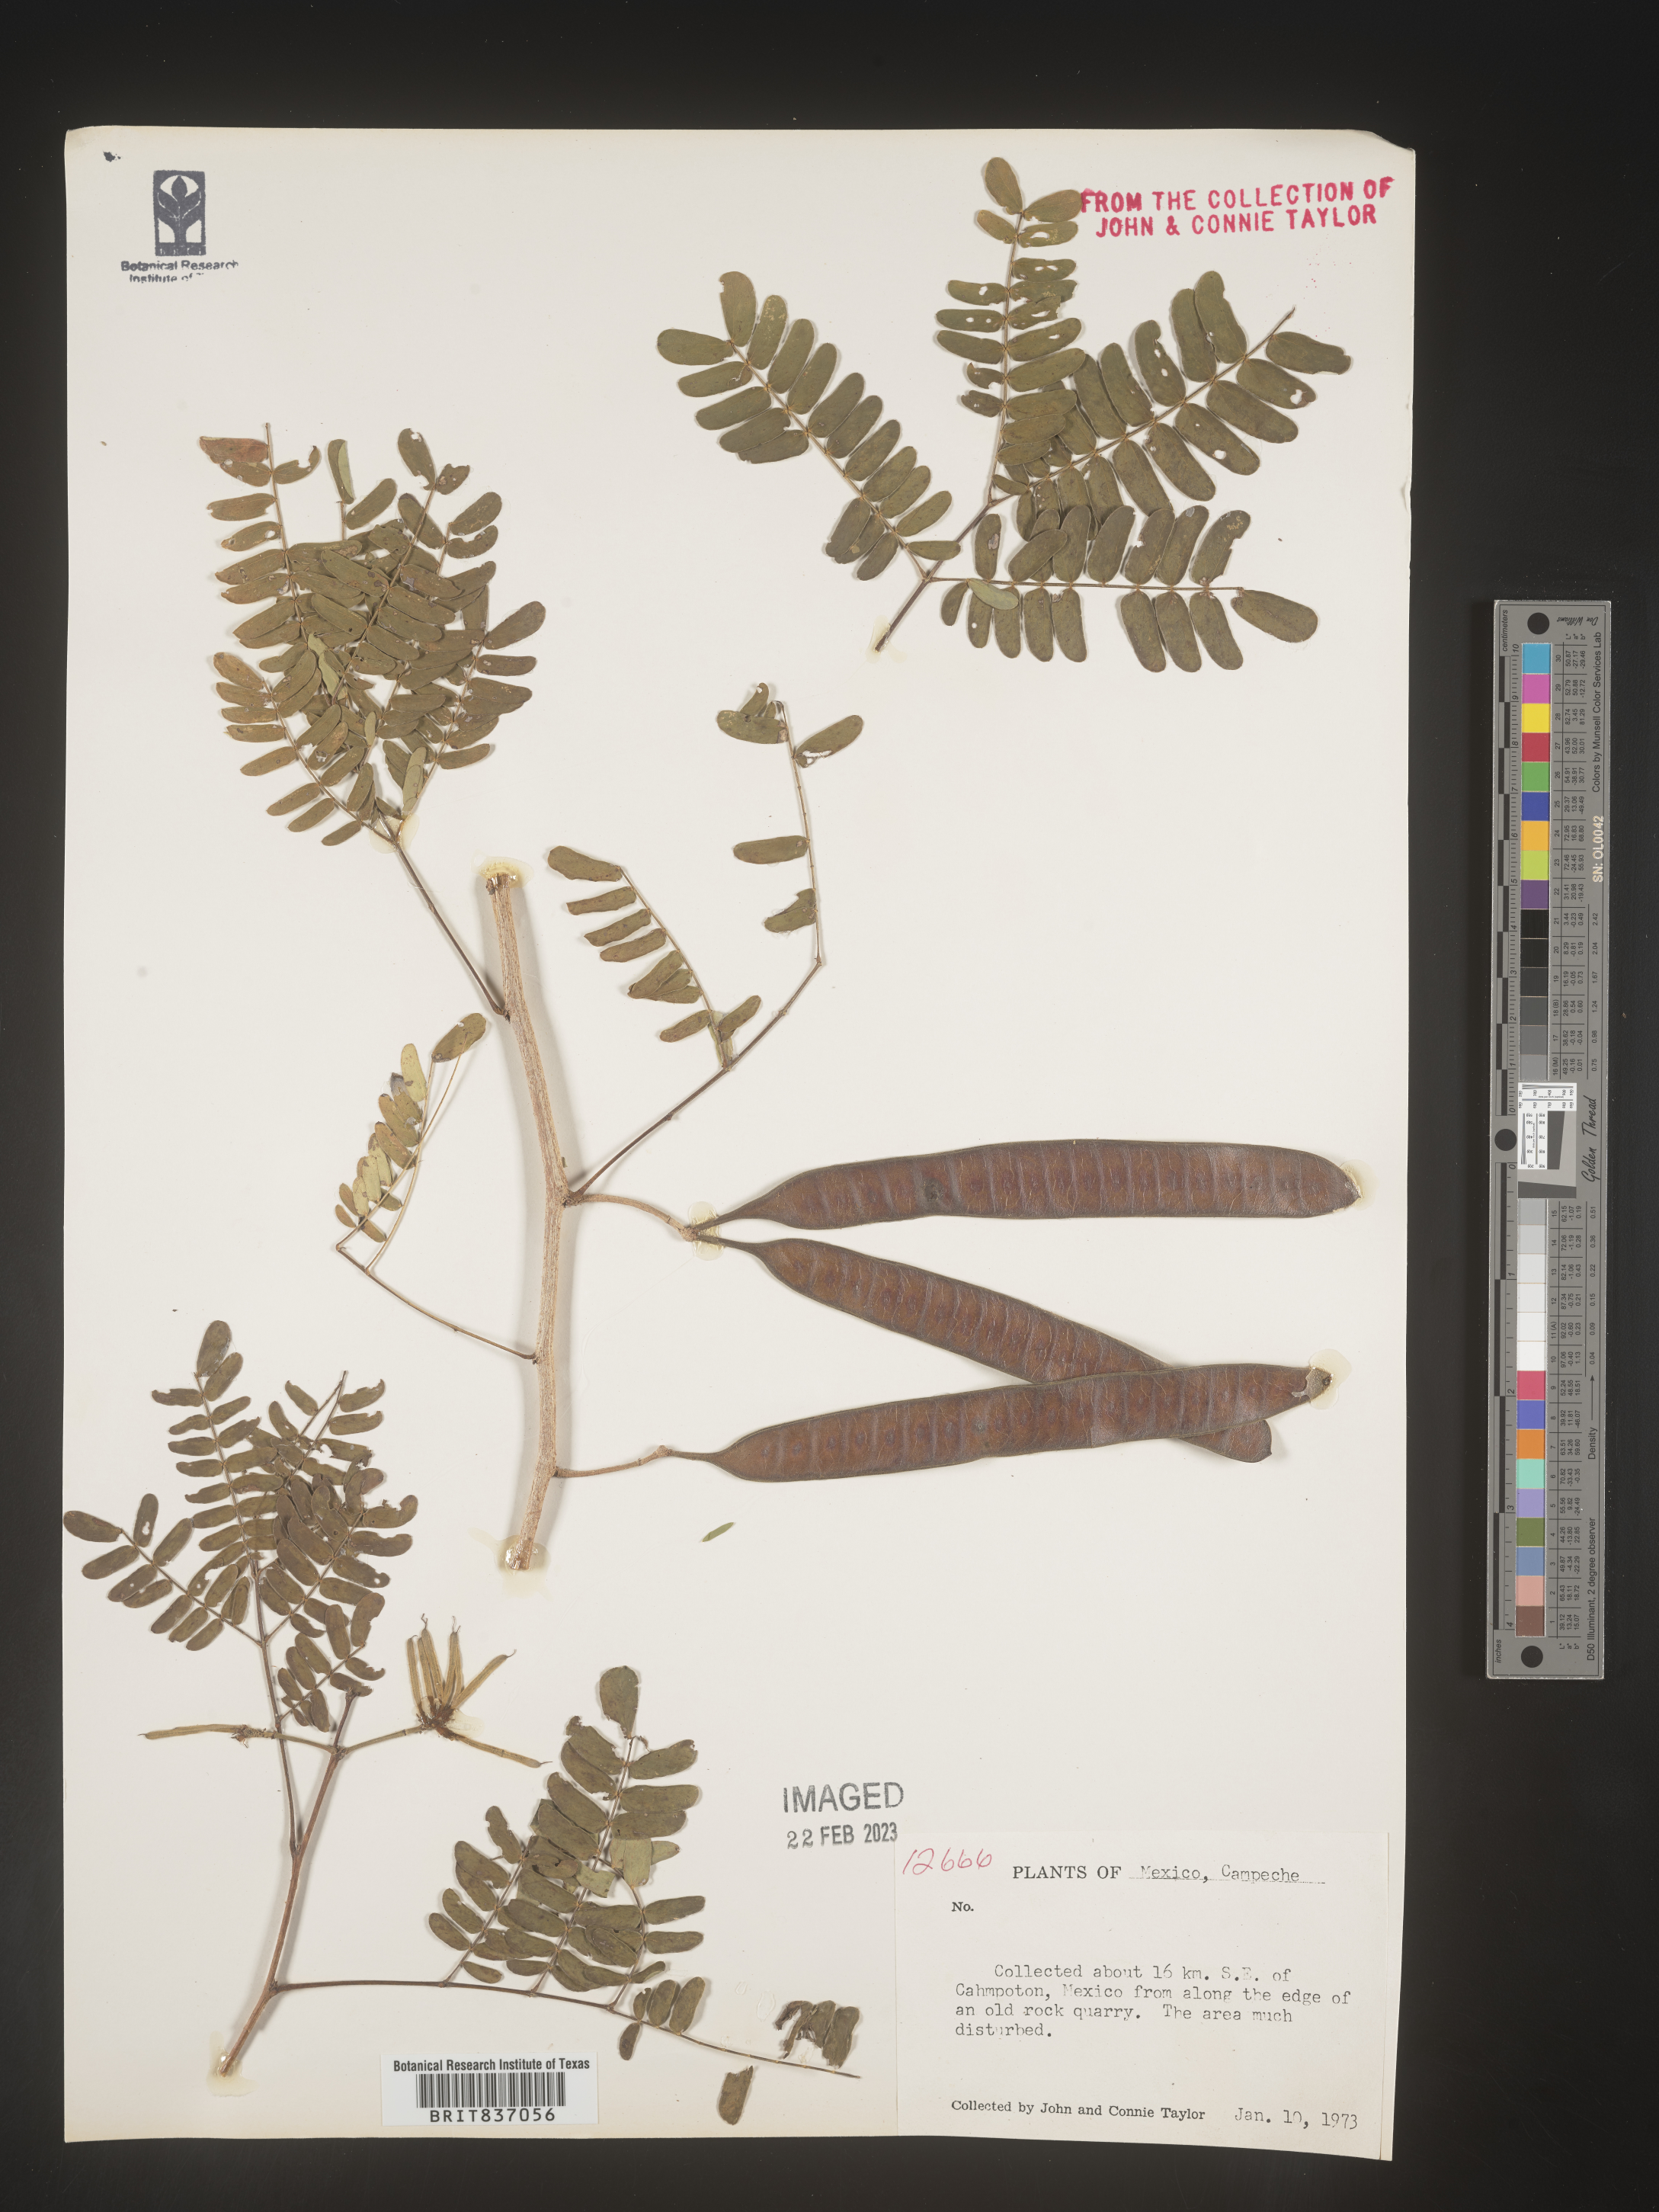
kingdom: Plantae
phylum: Tracheophyta
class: Magnoliopsida
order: Fabales
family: Fabaceae
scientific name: Fabaceae
